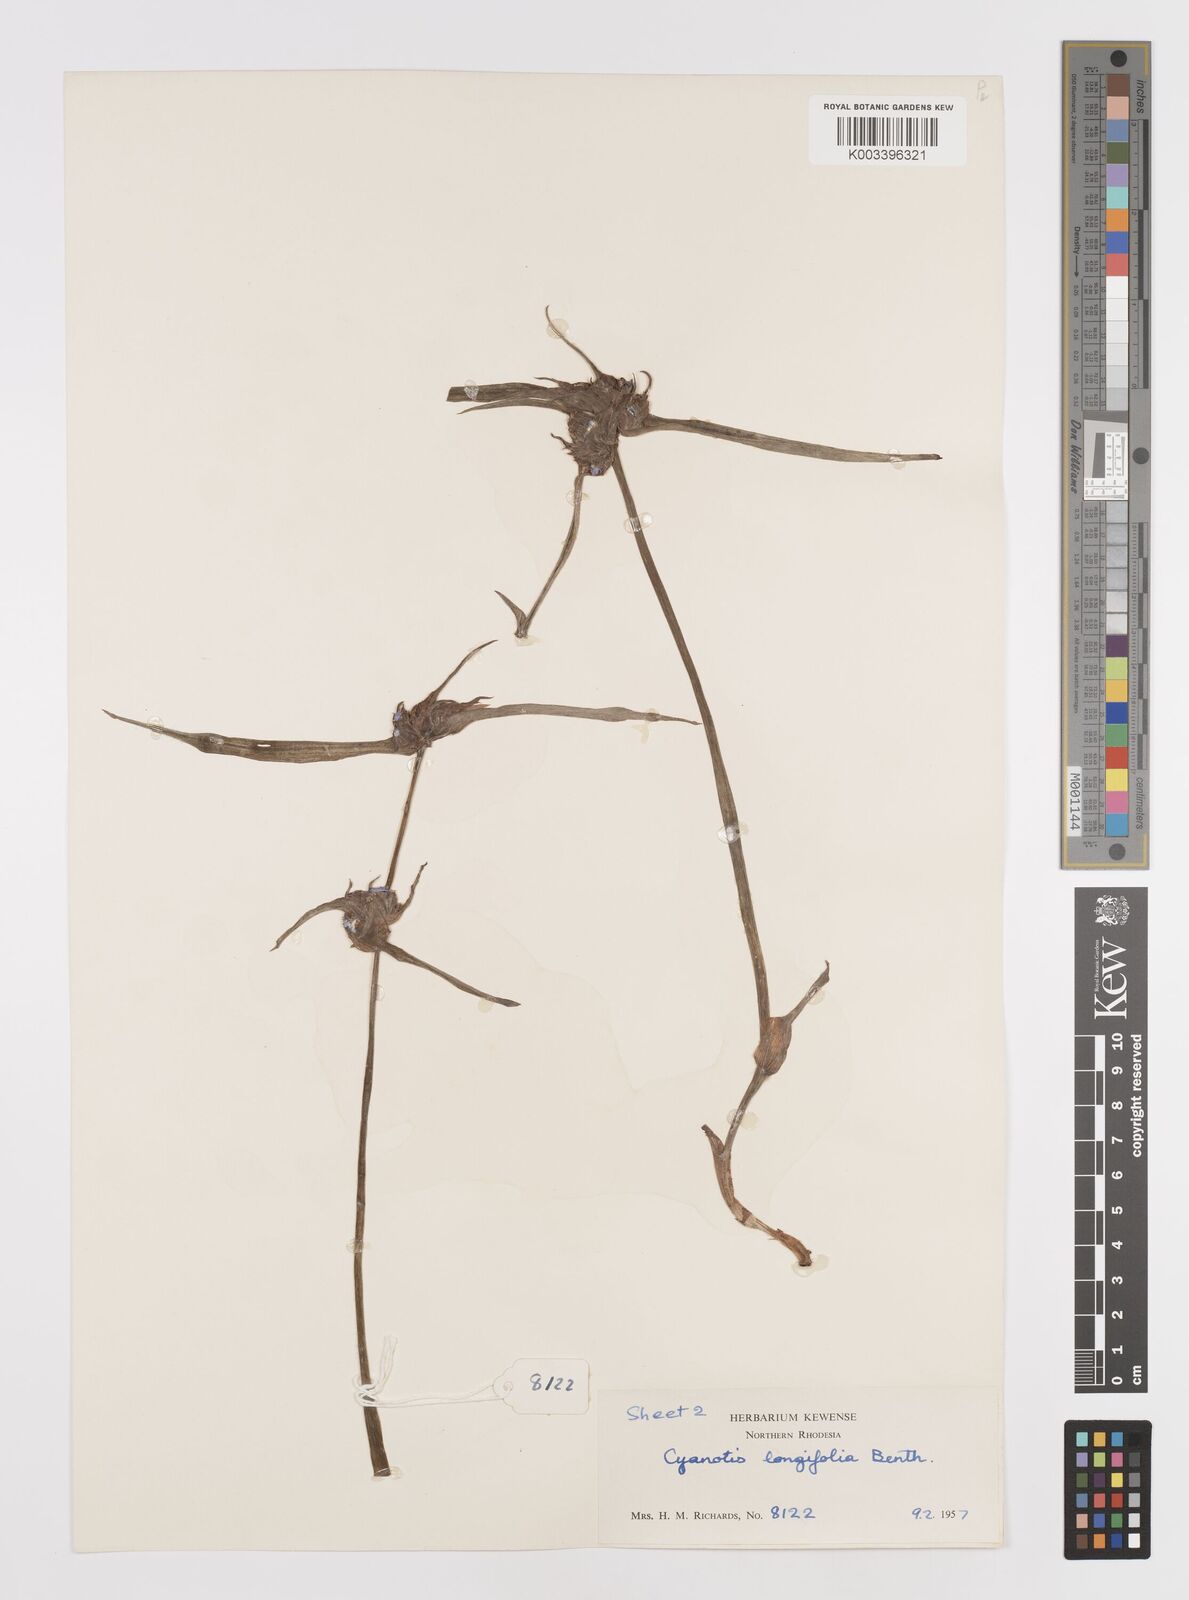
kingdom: Plantae
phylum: Tracheophyta
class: Liliopsida
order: Commelinales
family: Commelinaceae
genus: Cyanotis
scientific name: Cyanotis longifolia
